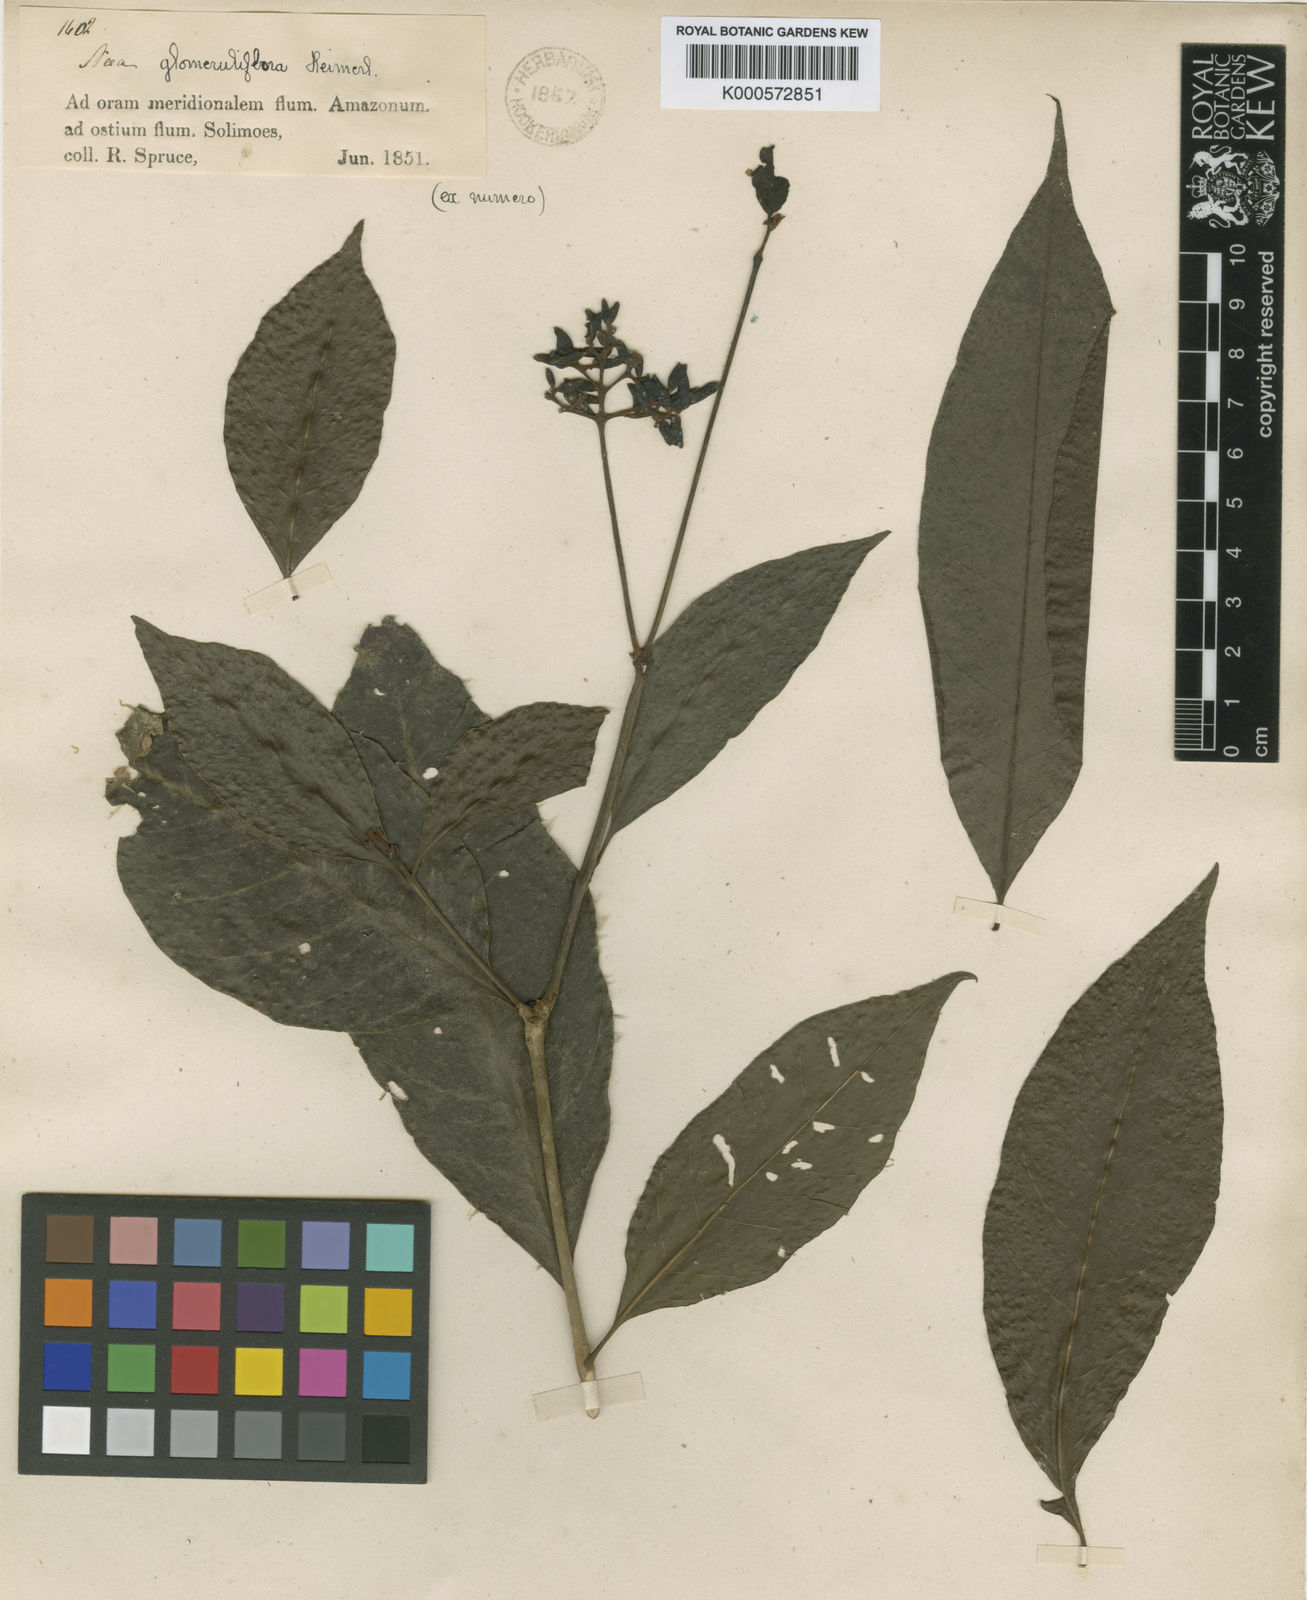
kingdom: Plantae
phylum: Tracheophyta
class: Magnoliopsida
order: Caryophyllales
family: Nyctaginaceae
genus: Neea
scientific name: Neea ovalifolia
